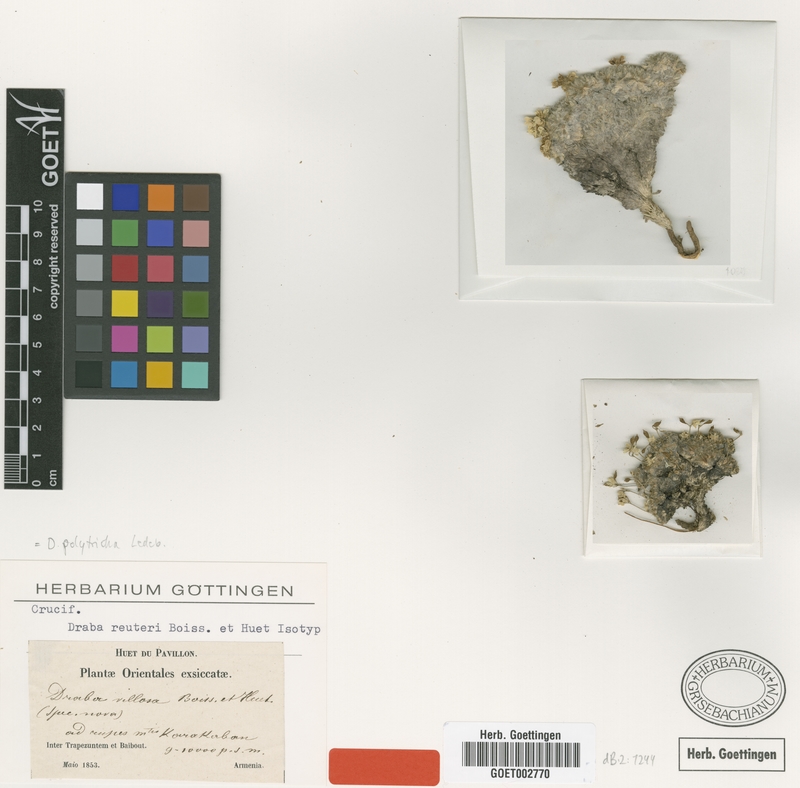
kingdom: Plantae
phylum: Tracheophyta
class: Magnoliopsida
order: Brassicales
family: Brassicaceae
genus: Draba
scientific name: Draba polytricha
